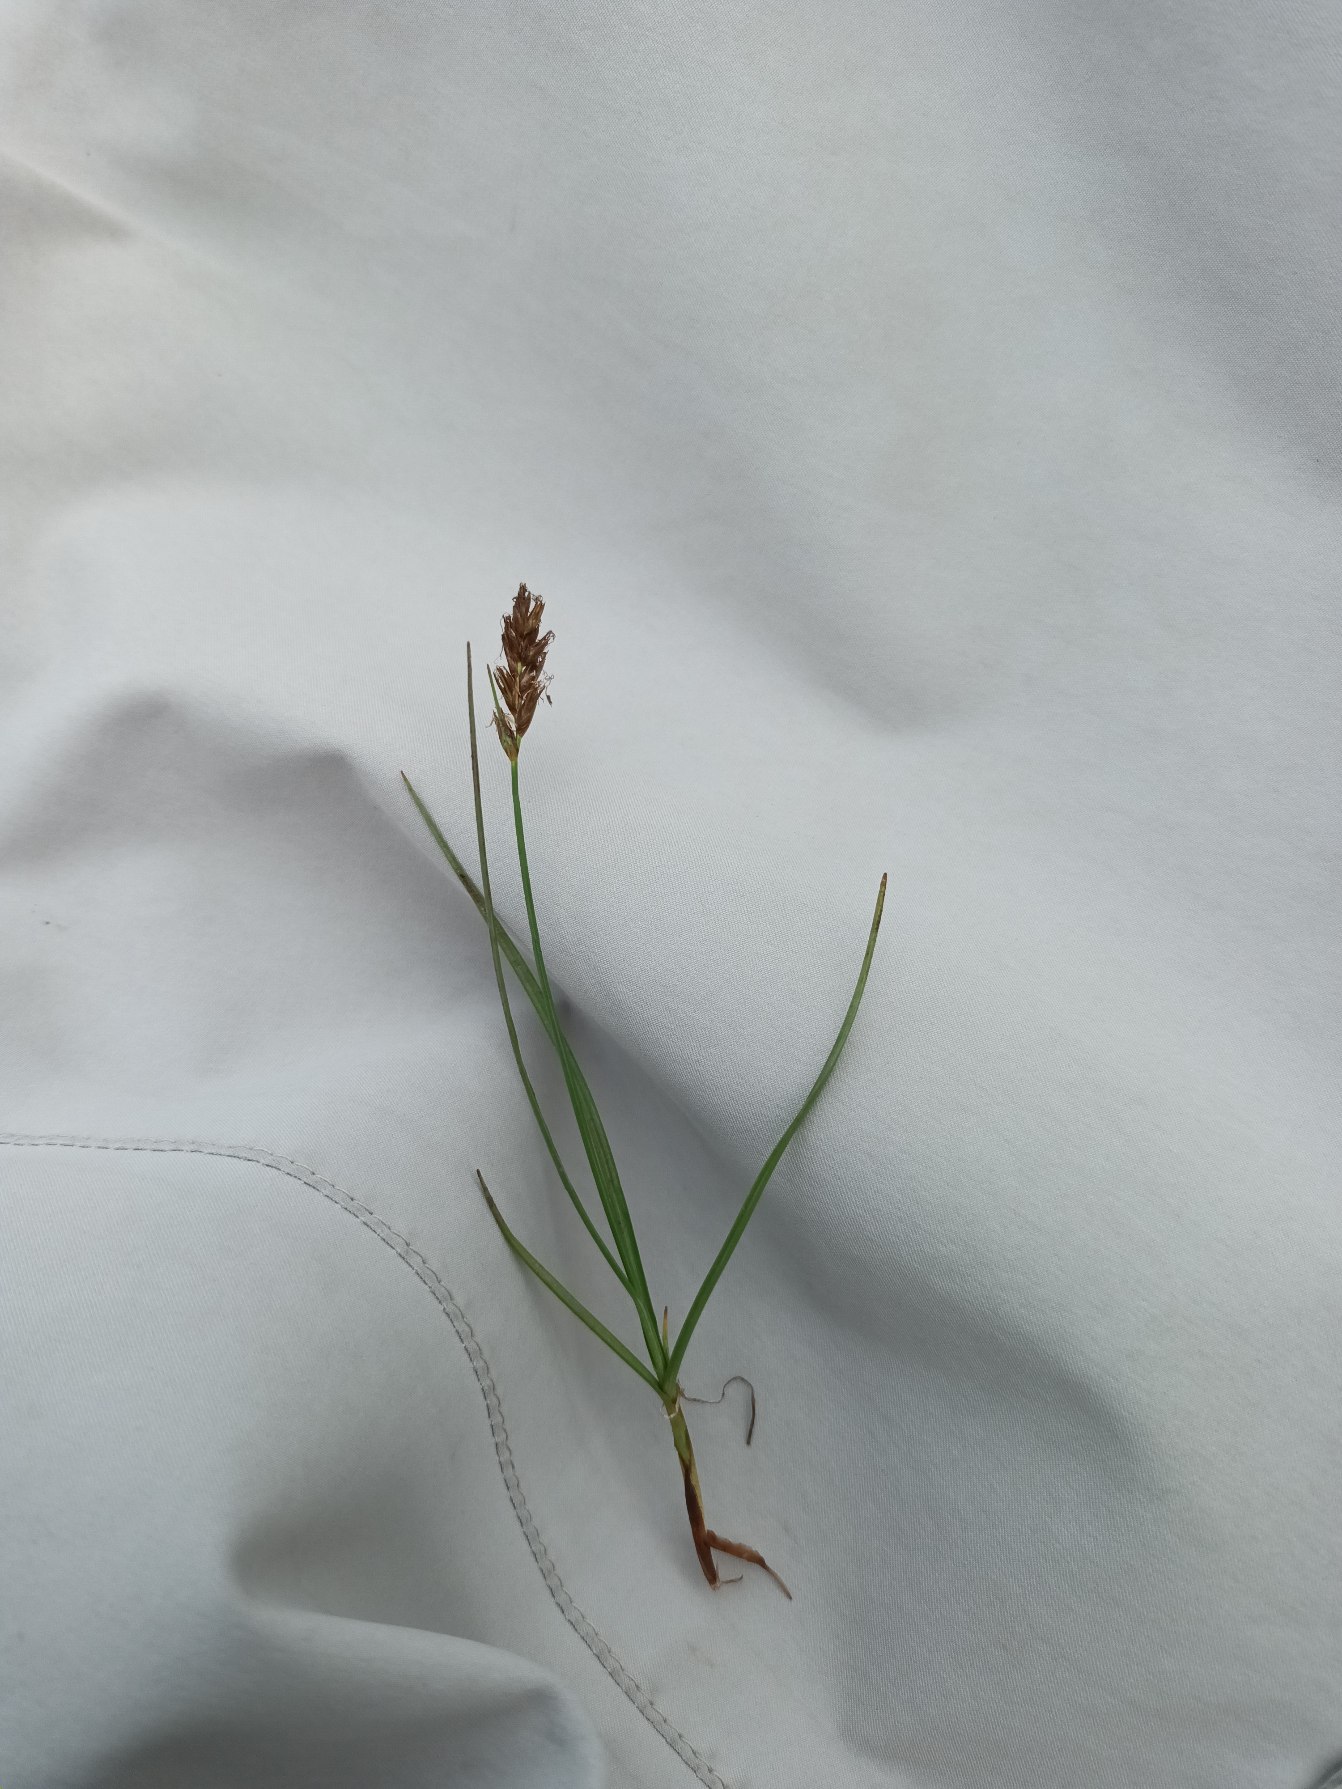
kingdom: Plantae
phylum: Tracheophyta
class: Liliopsida
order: Poales
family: Cyperaceae
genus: Blysmus
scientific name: Blysmus compressus
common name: Fladtrykt kogleaks
